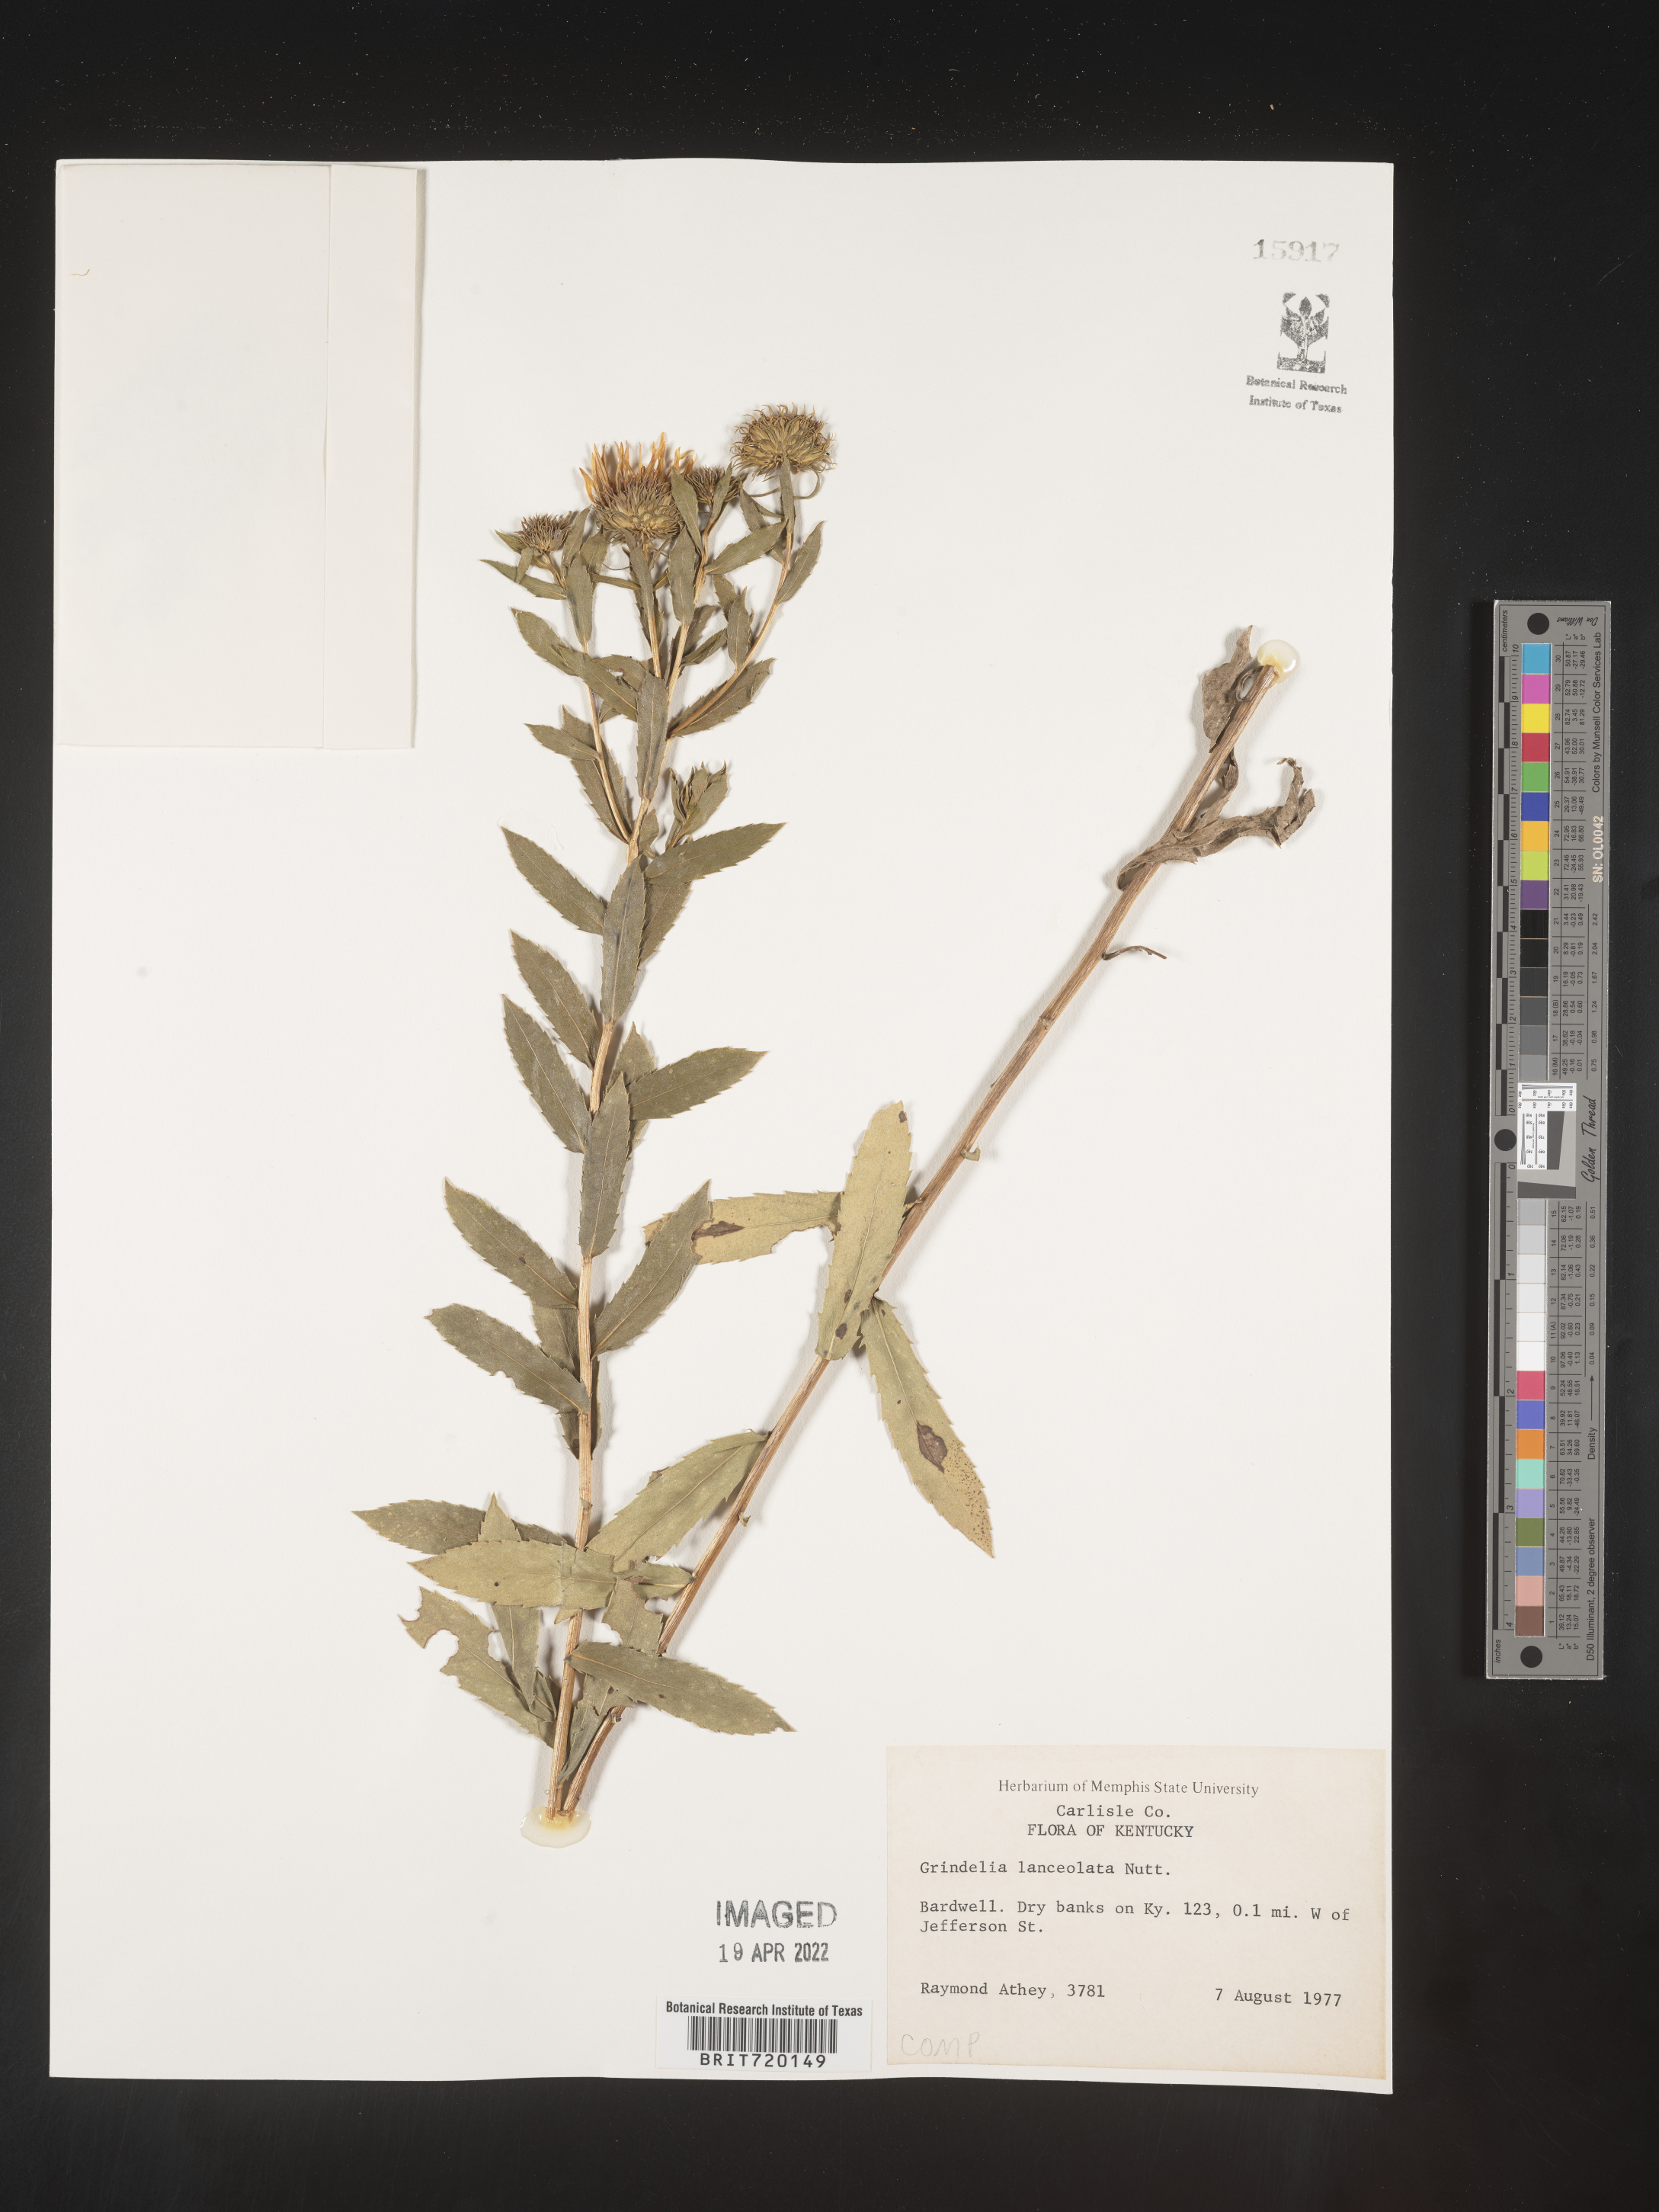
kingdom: Plantae
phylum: Tracheophyta
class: Magnoliopsida
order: Asterales
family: Asteraceae
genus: Grindelia
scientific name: Grindelia lanceolata
